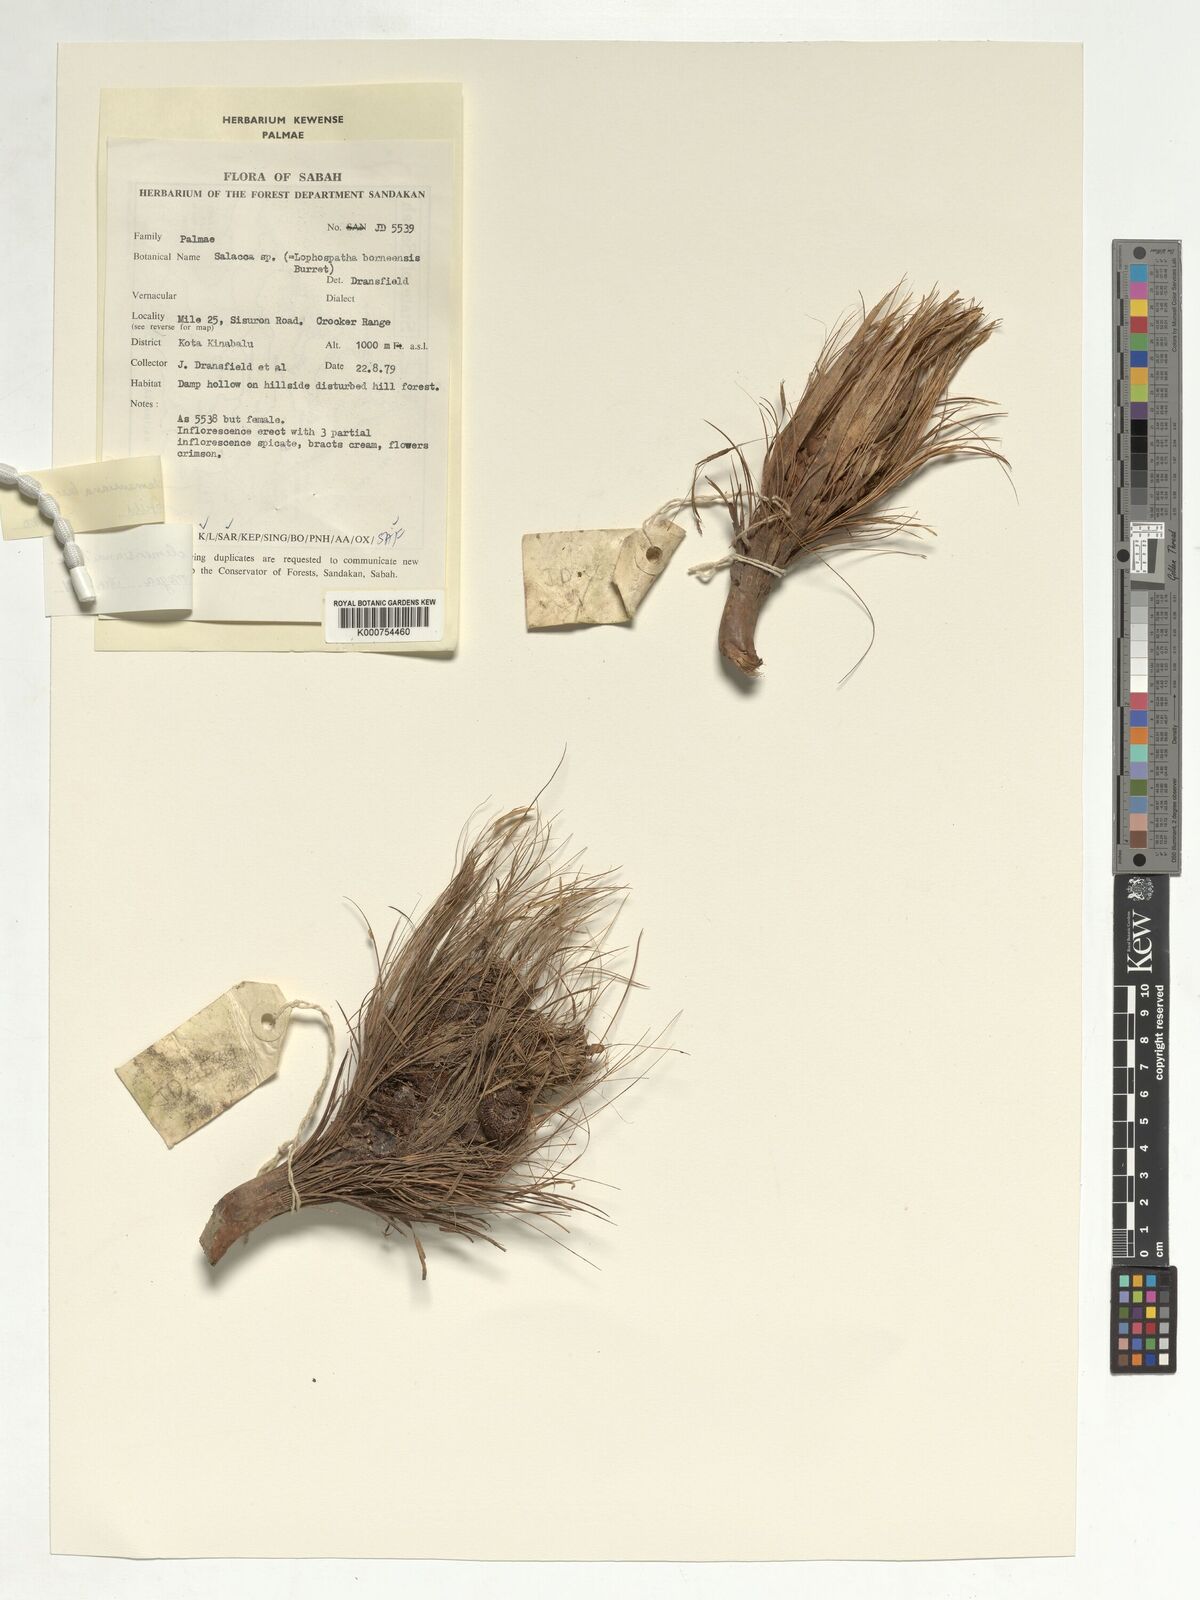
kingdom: Plantae
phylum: Tracheophyta
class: Liliopsida
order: Arecales
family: Arecaceae
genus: Salacca
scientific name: Salacca clemensiana
